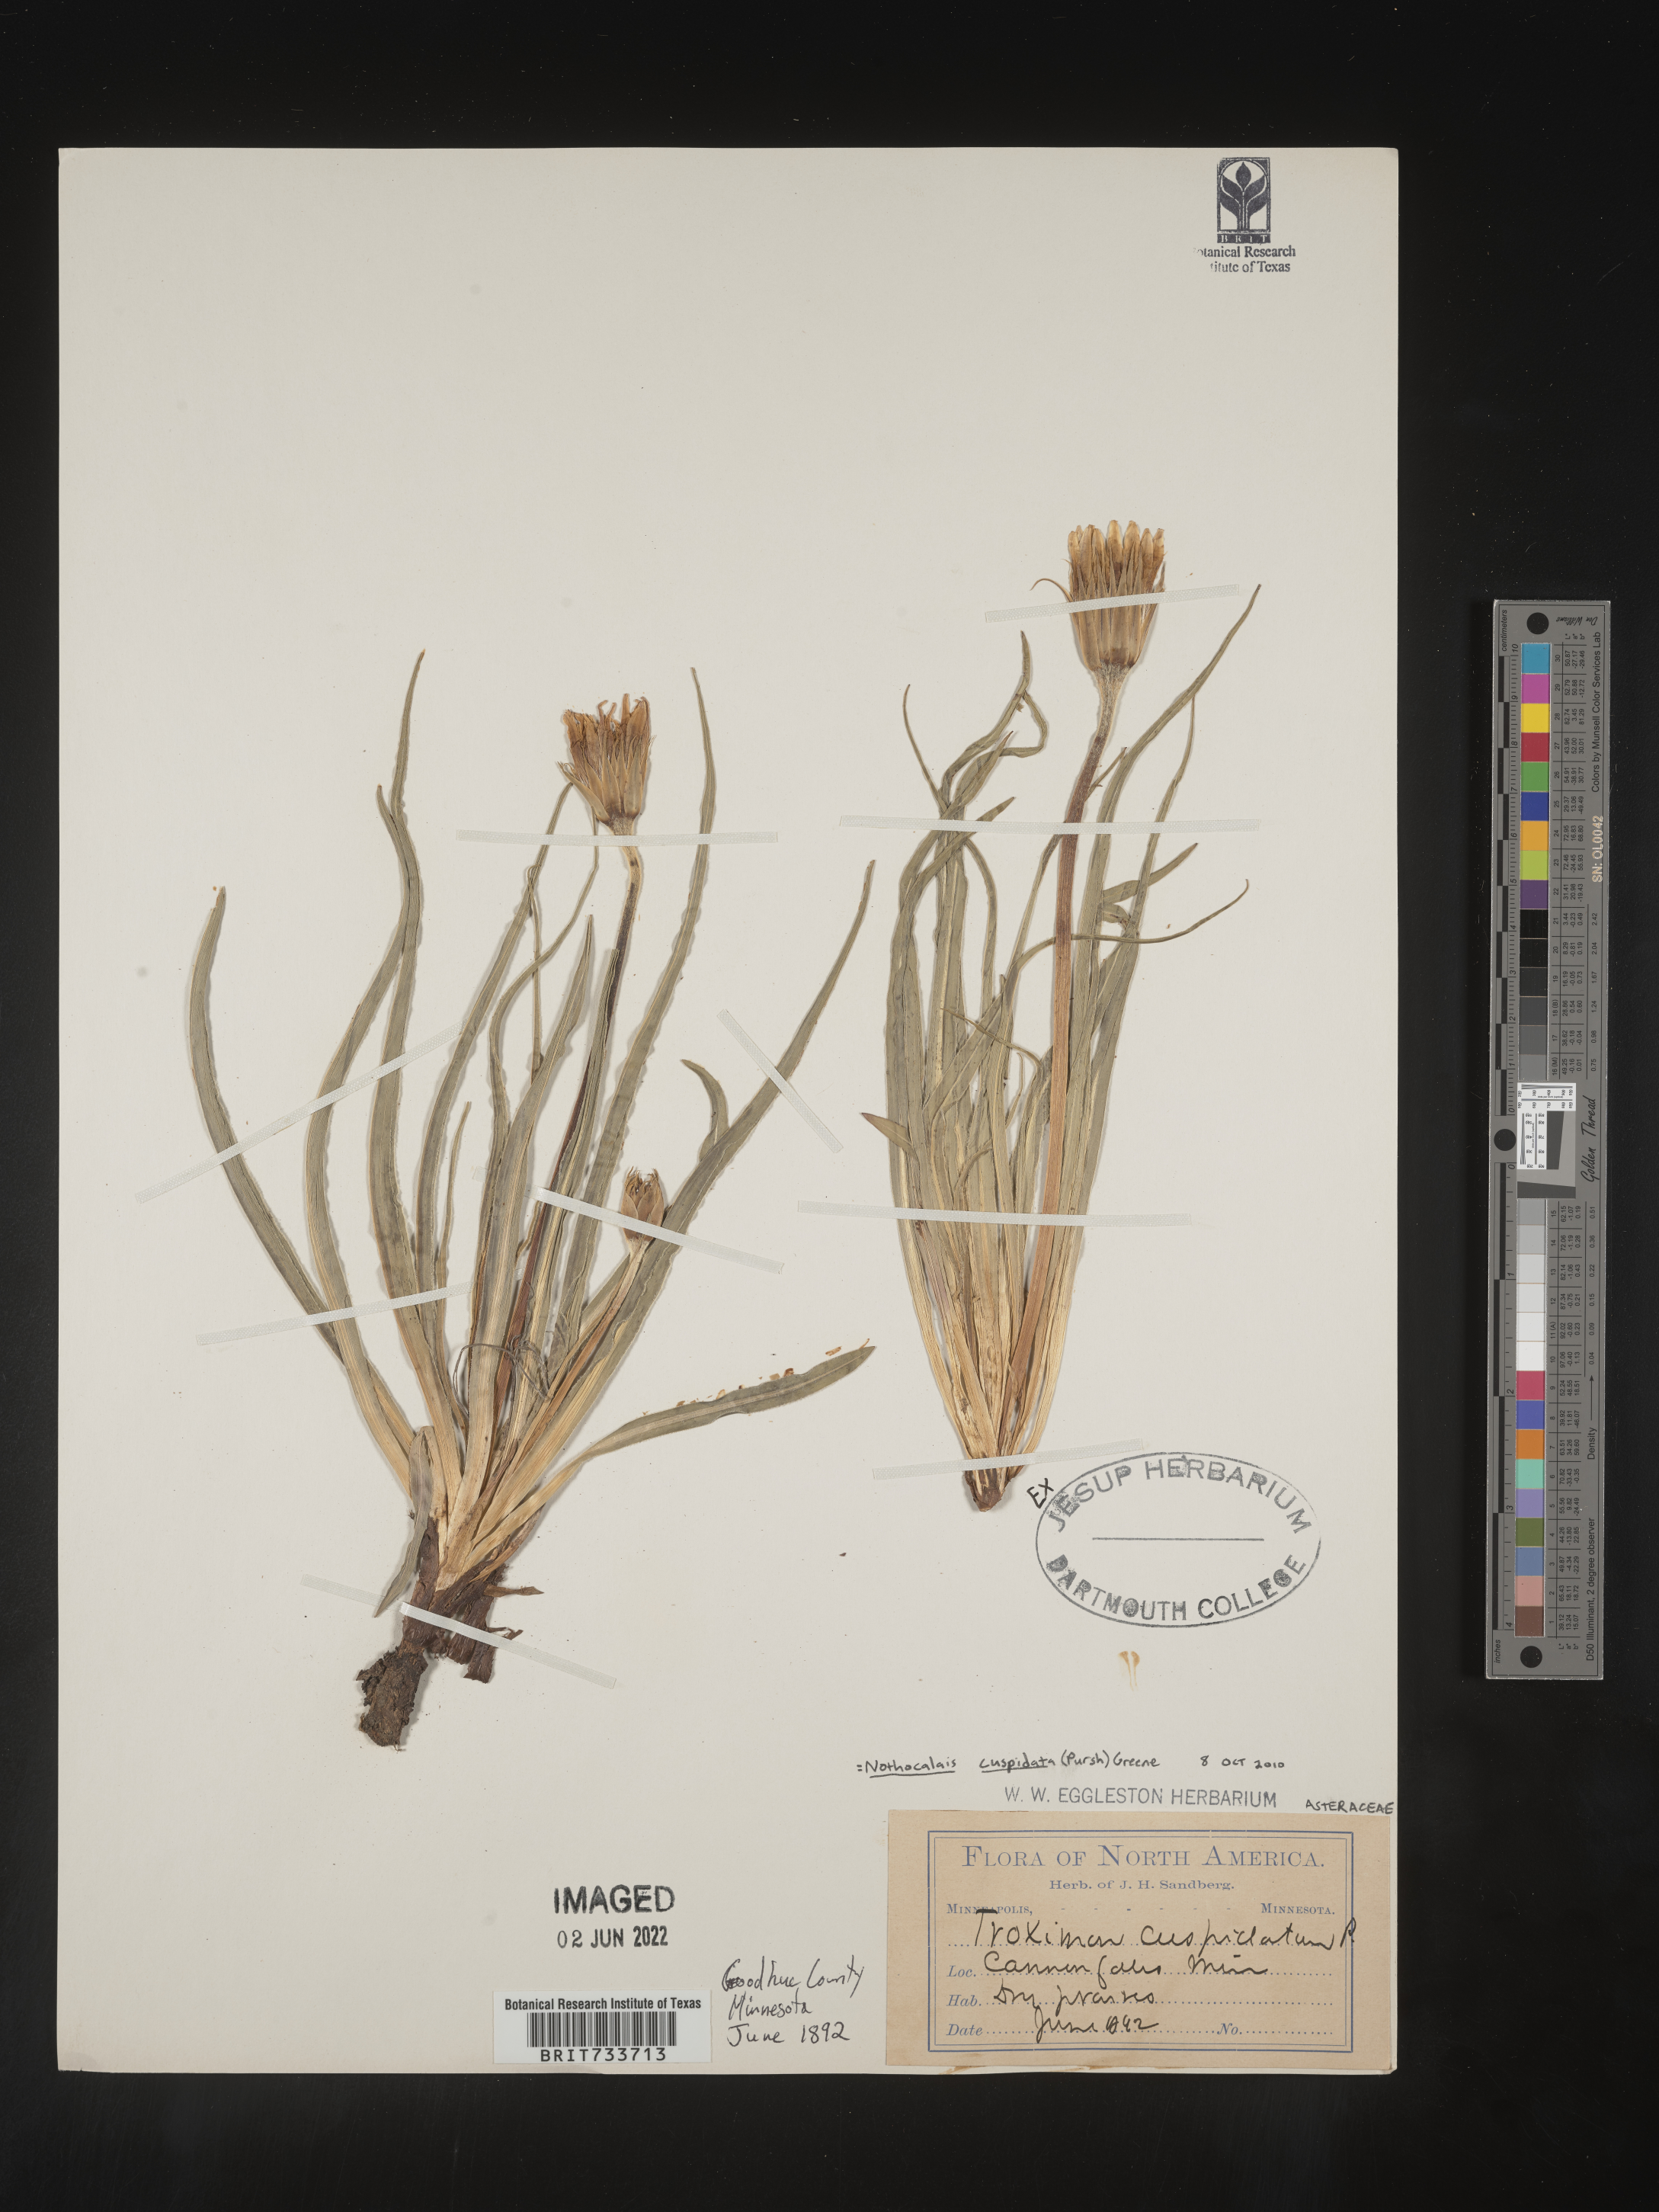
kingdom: Plantae
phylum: Tracheophyta
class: Magnoliopsida
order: Asterales
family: Asteraceae
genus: Microseris
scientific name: Microseris
